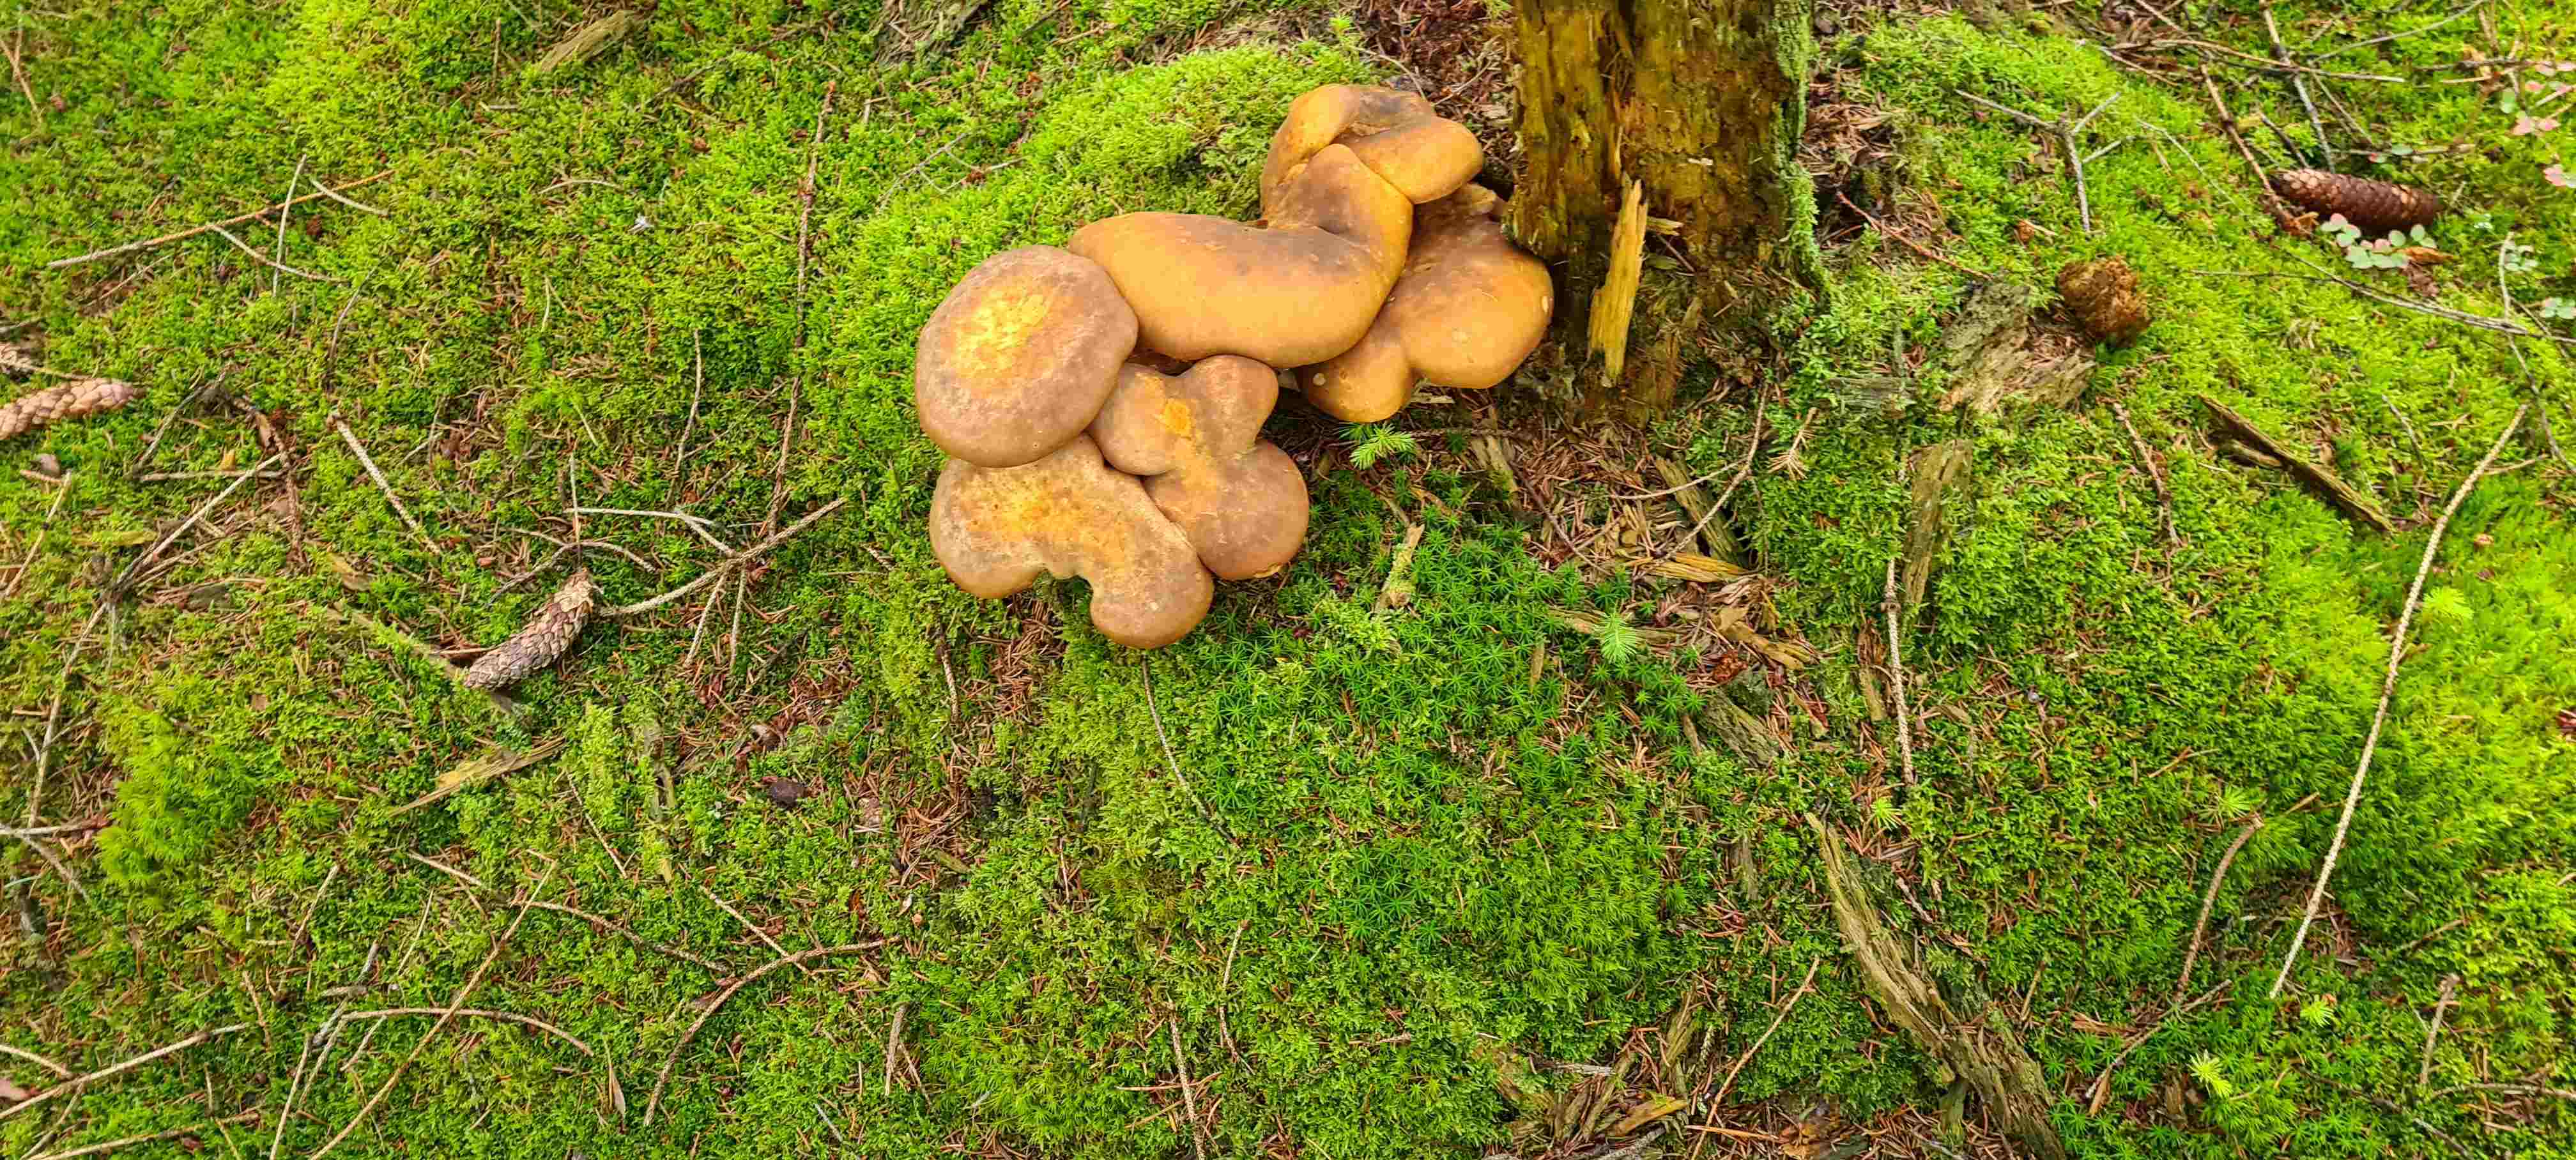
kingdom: Fungi
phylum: Basidiomycota
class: Agaricomycetes
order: Boletales
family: Tapinellaceae
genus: Tapinella
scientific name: Tapinella atrotomentosa
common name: sortfiltet viftesvamp
